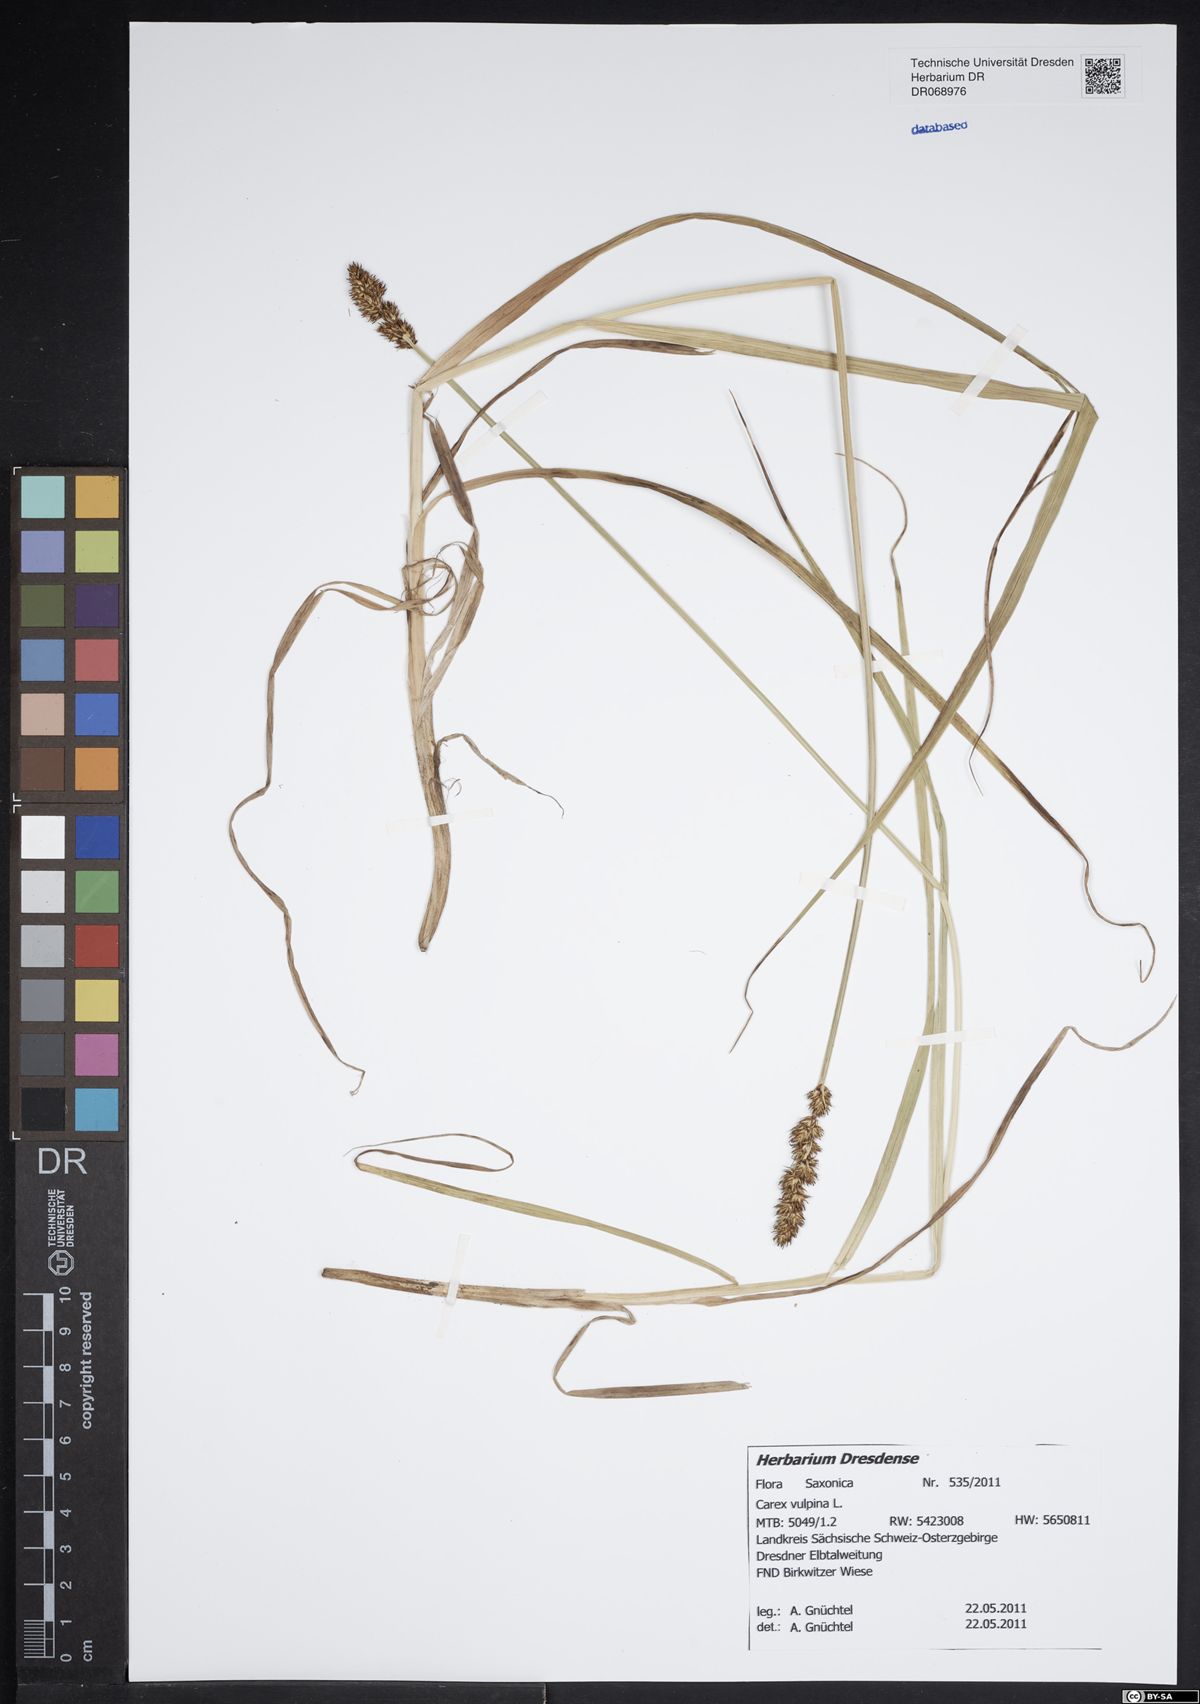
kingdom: Plantae
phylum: Tracheophyta
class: Liliopsida
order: Poales
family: Cyperaceae
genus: Carex
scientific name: Carex vulpina
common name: True fox-sedge
